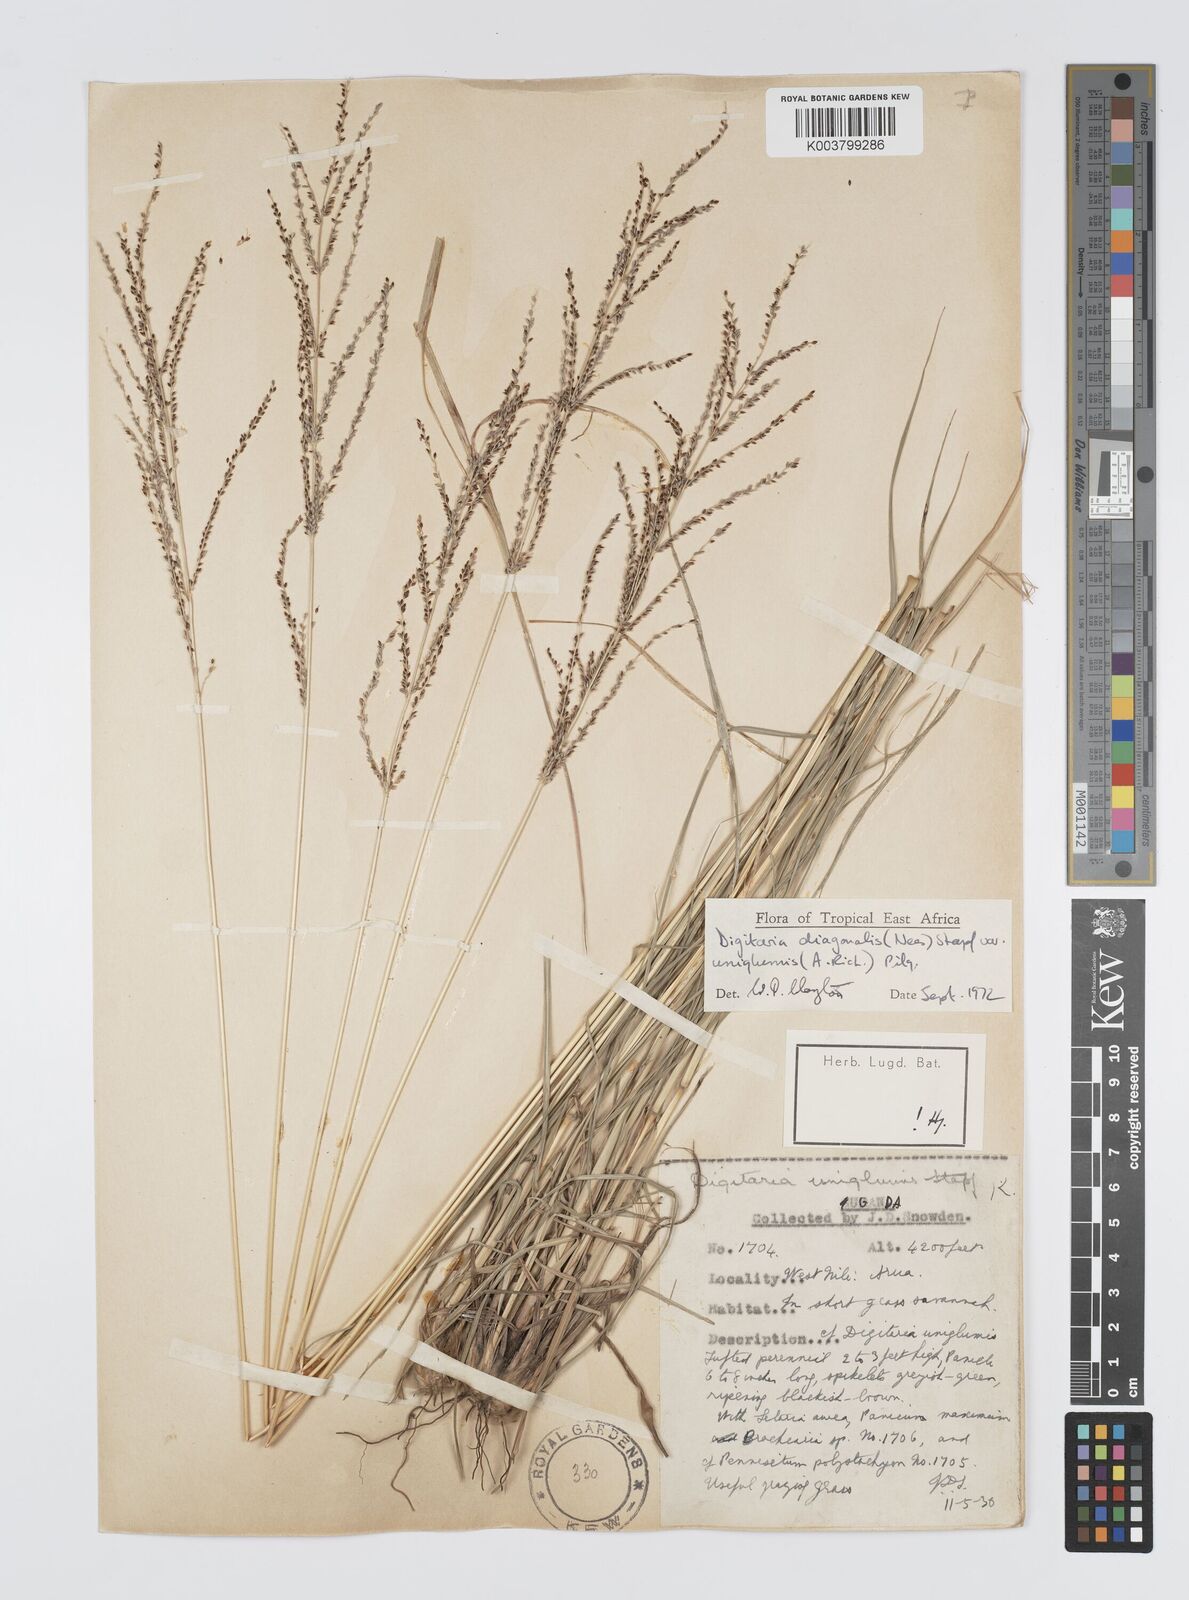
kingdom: Plantae
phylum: Tracheophyta
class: Liliopsida
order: Poales
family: Poaceae
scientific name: Poaceae
